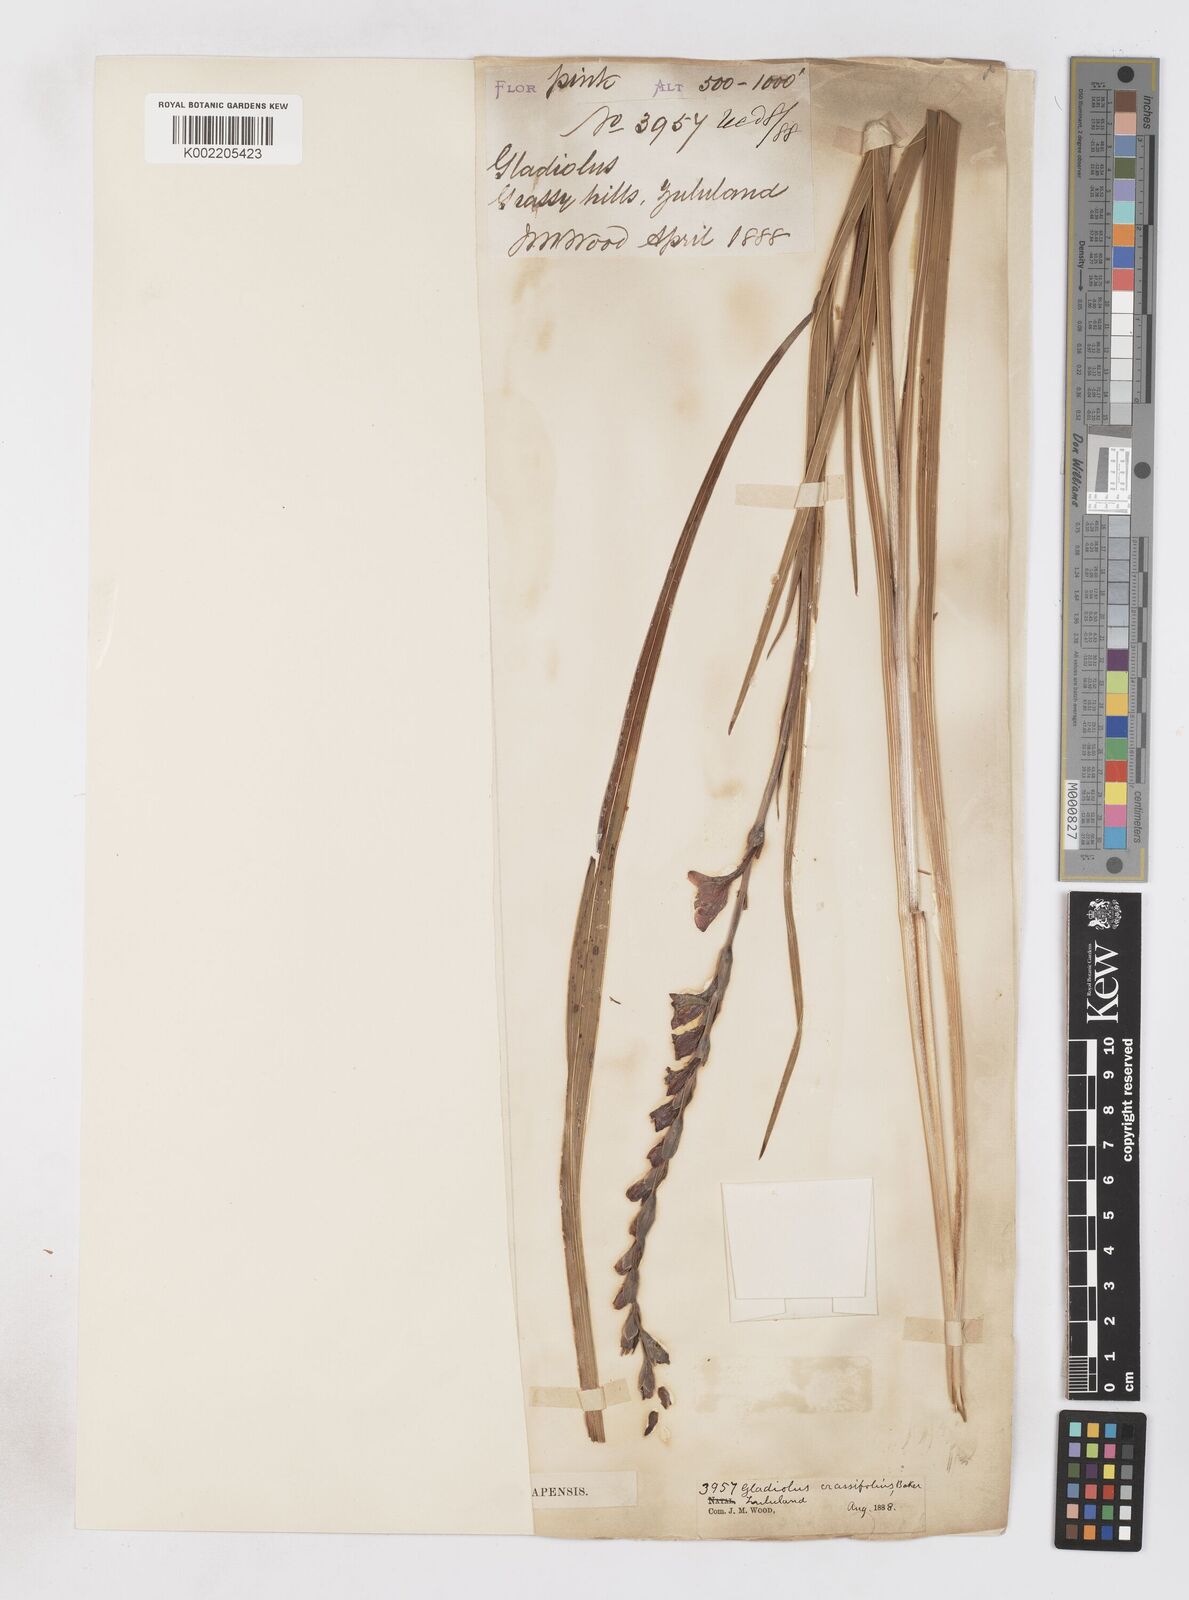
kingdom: Plantae
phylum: Tracheophyta
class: Liliopsida
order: Asparagales
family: Iridaceae
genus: Gladiolus
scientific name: Gladiolus densiflorus
